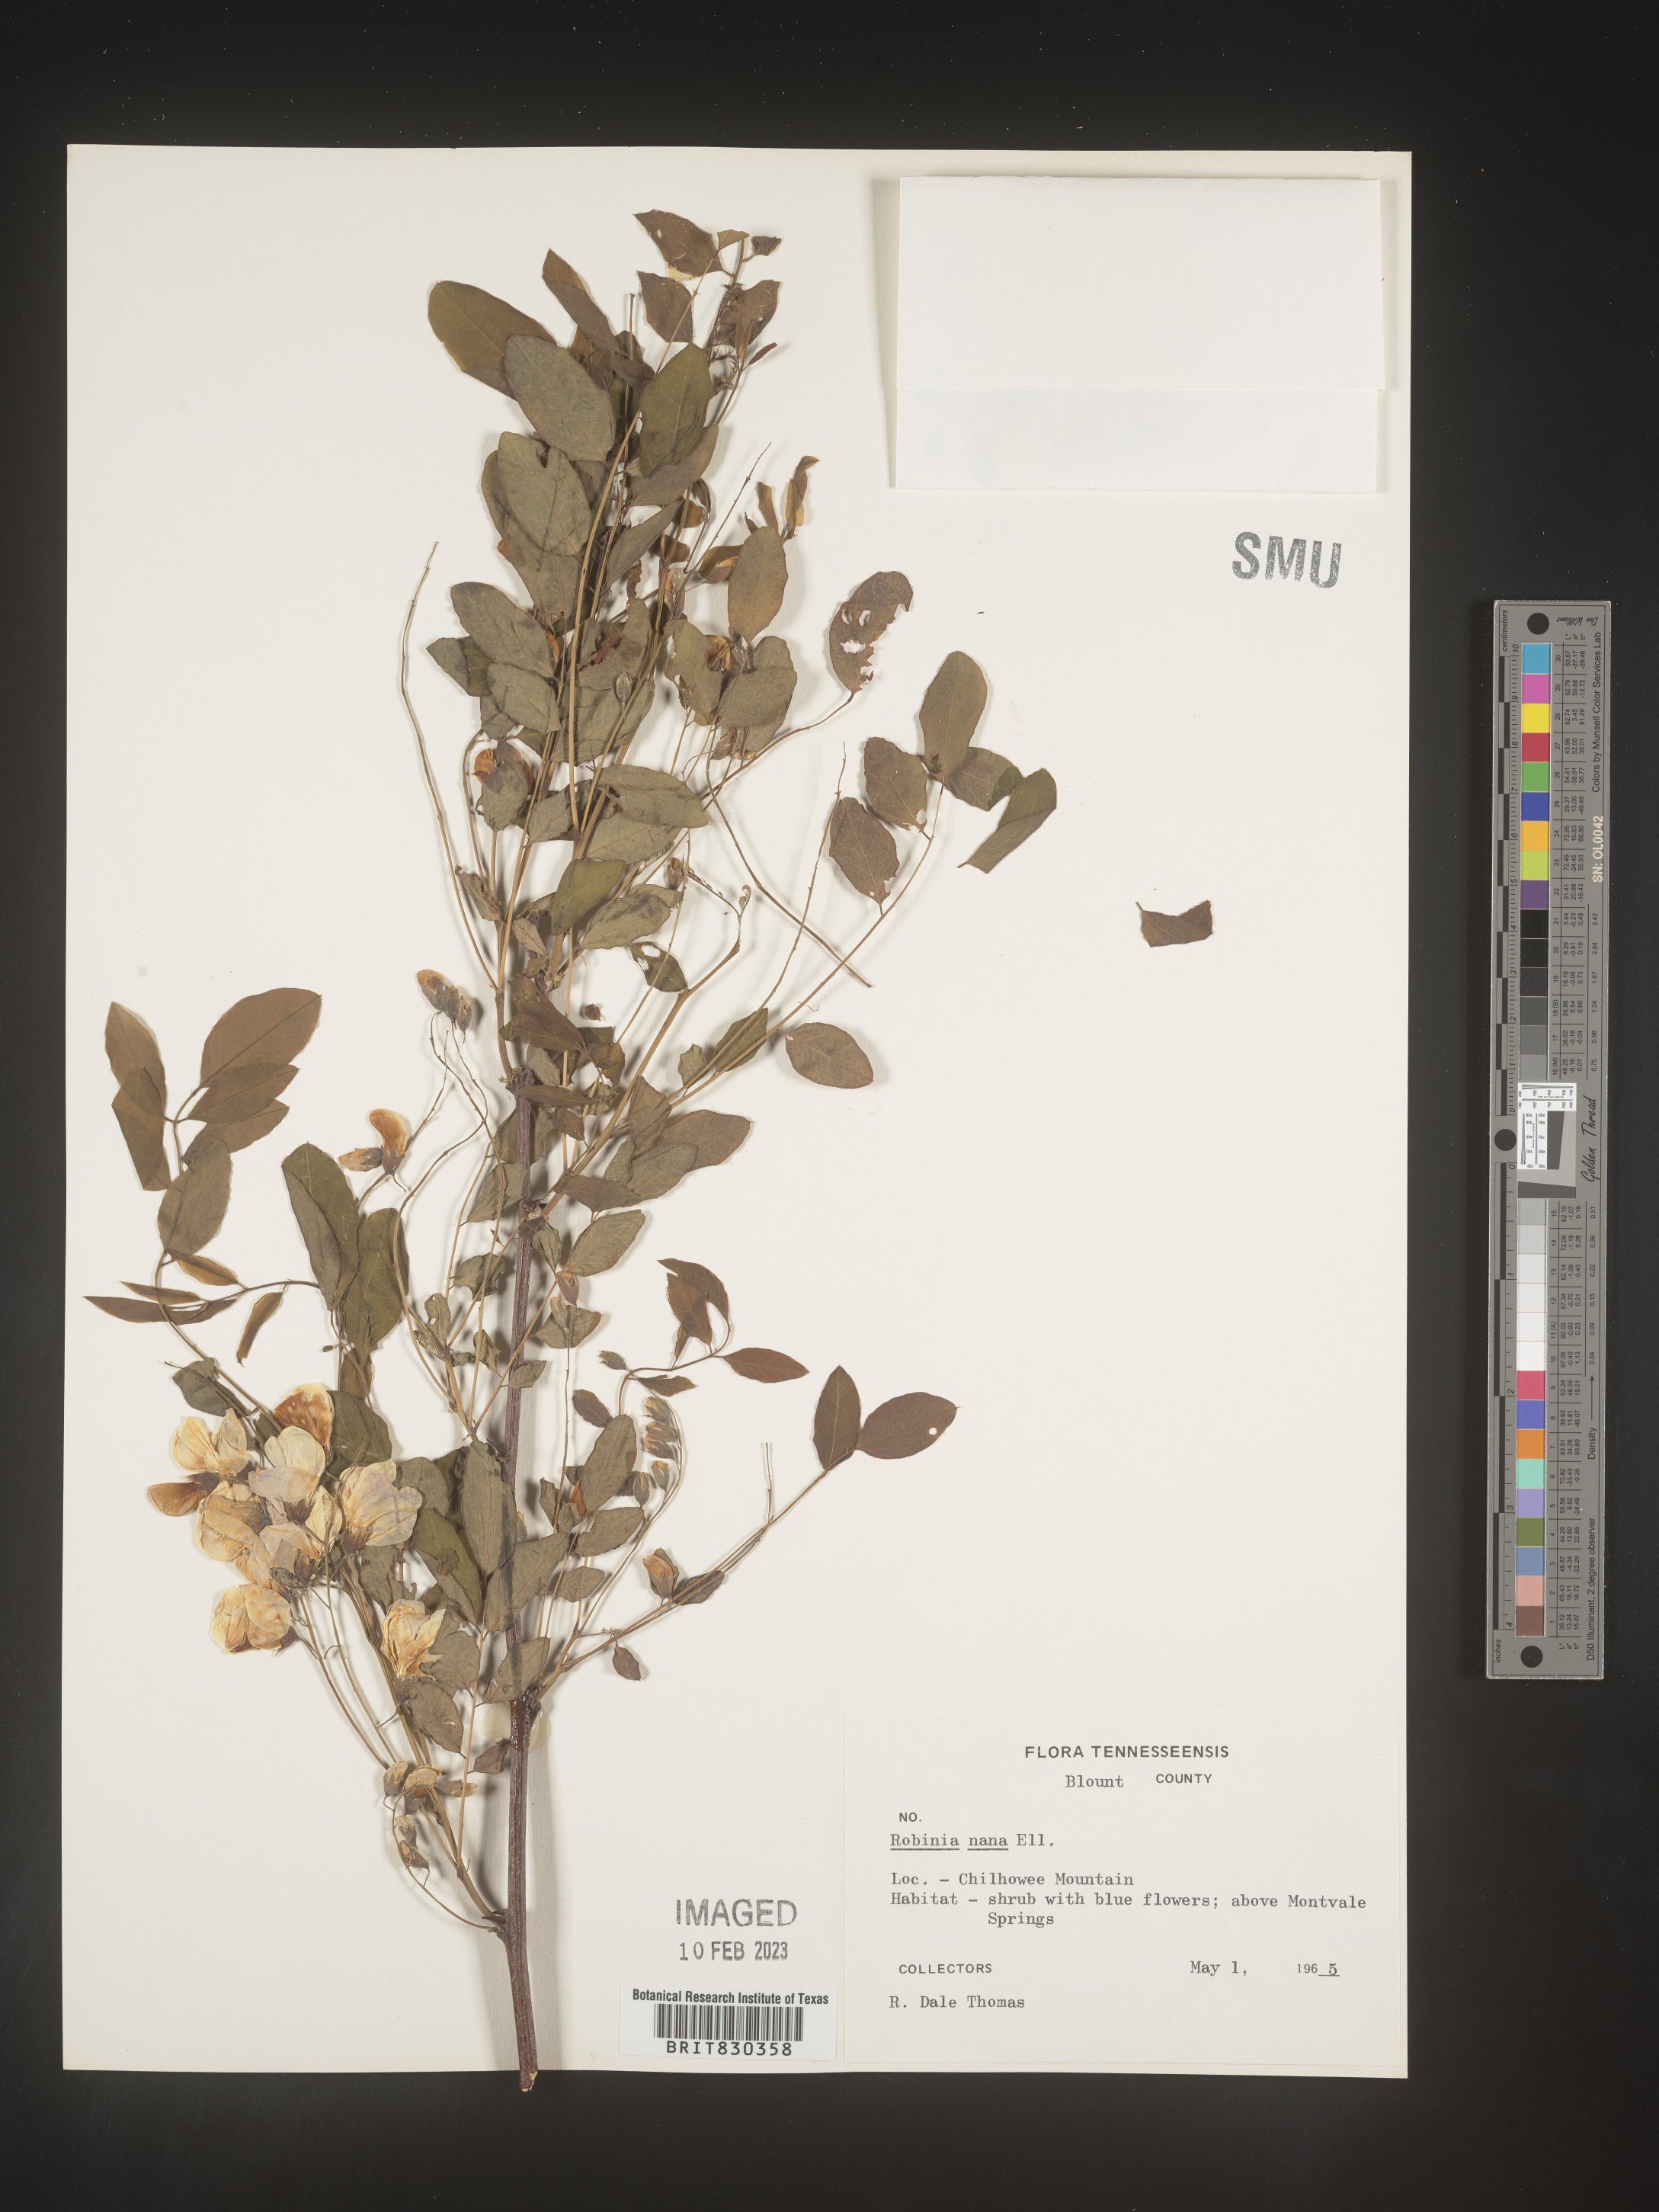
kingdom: Plantae
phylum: Tracheophyta
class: Magnoliopsida
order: Fabales
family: Fabaceae
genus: Robinia
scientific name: Robinia
